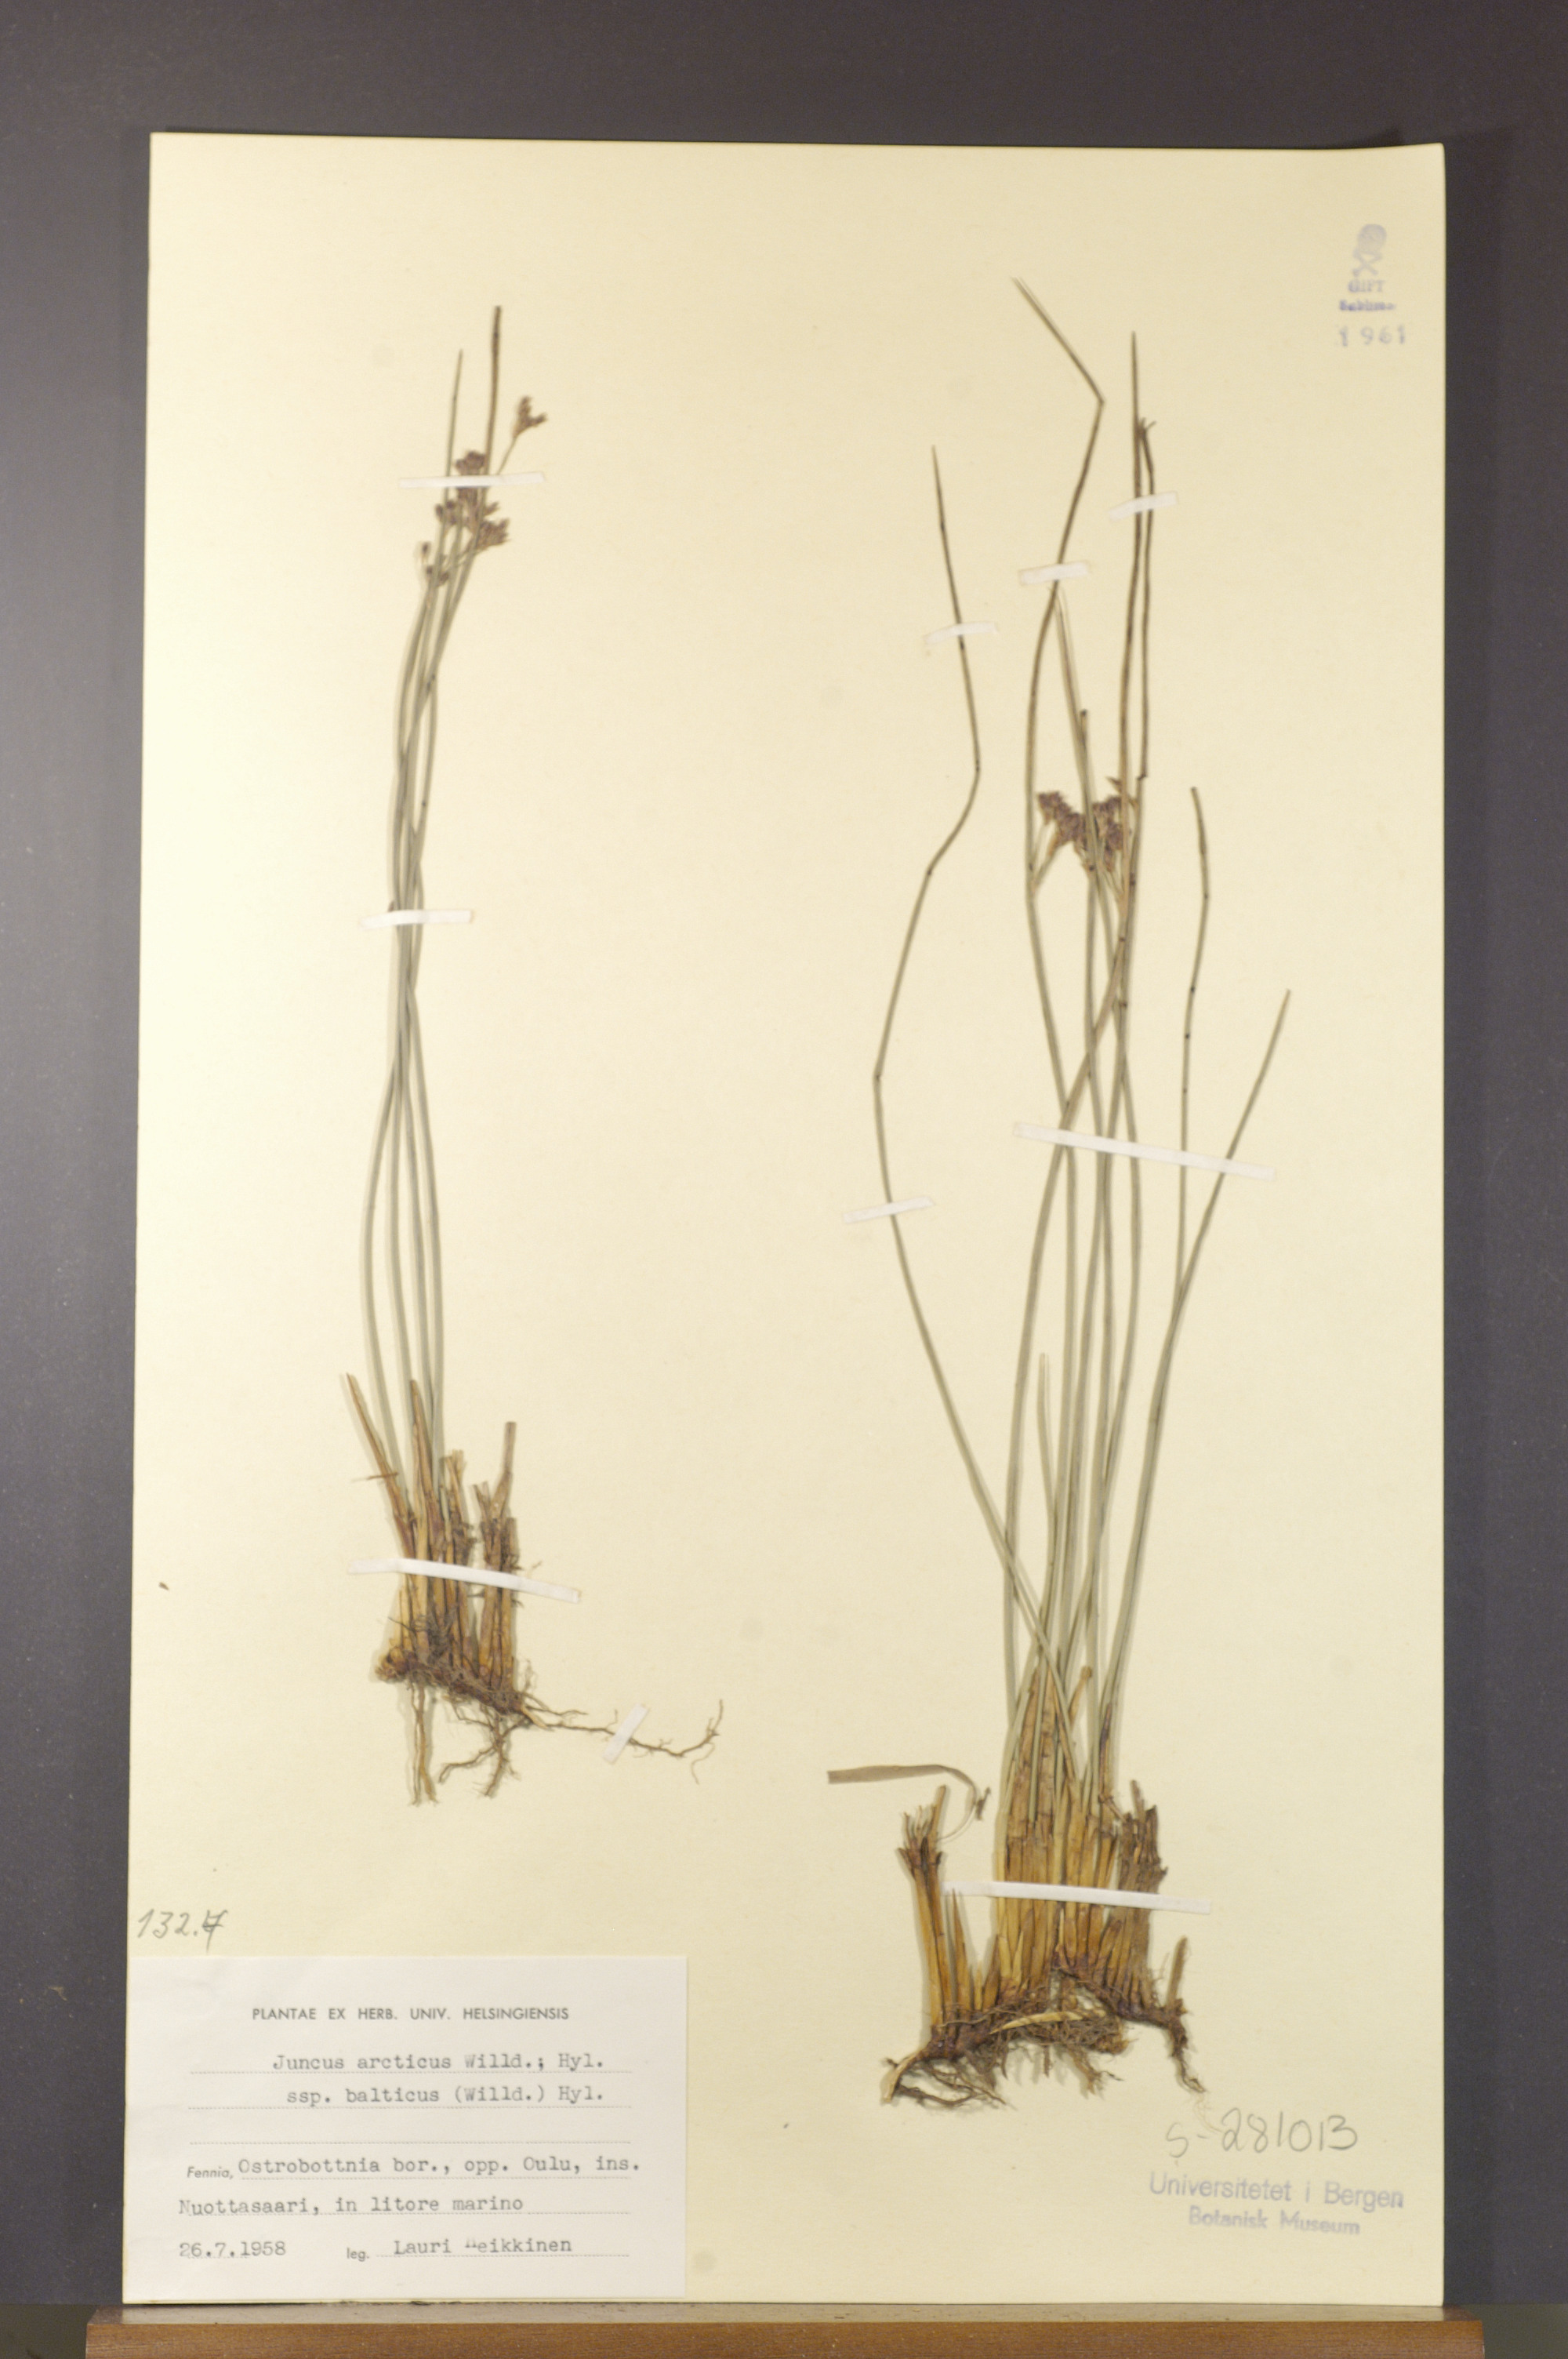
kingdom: Plantae
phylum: Tracheophyta
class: Liliopsida
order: Poales
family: Juncaceae
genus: Juncus
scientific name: Juncus balticus
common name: Baltic rush
